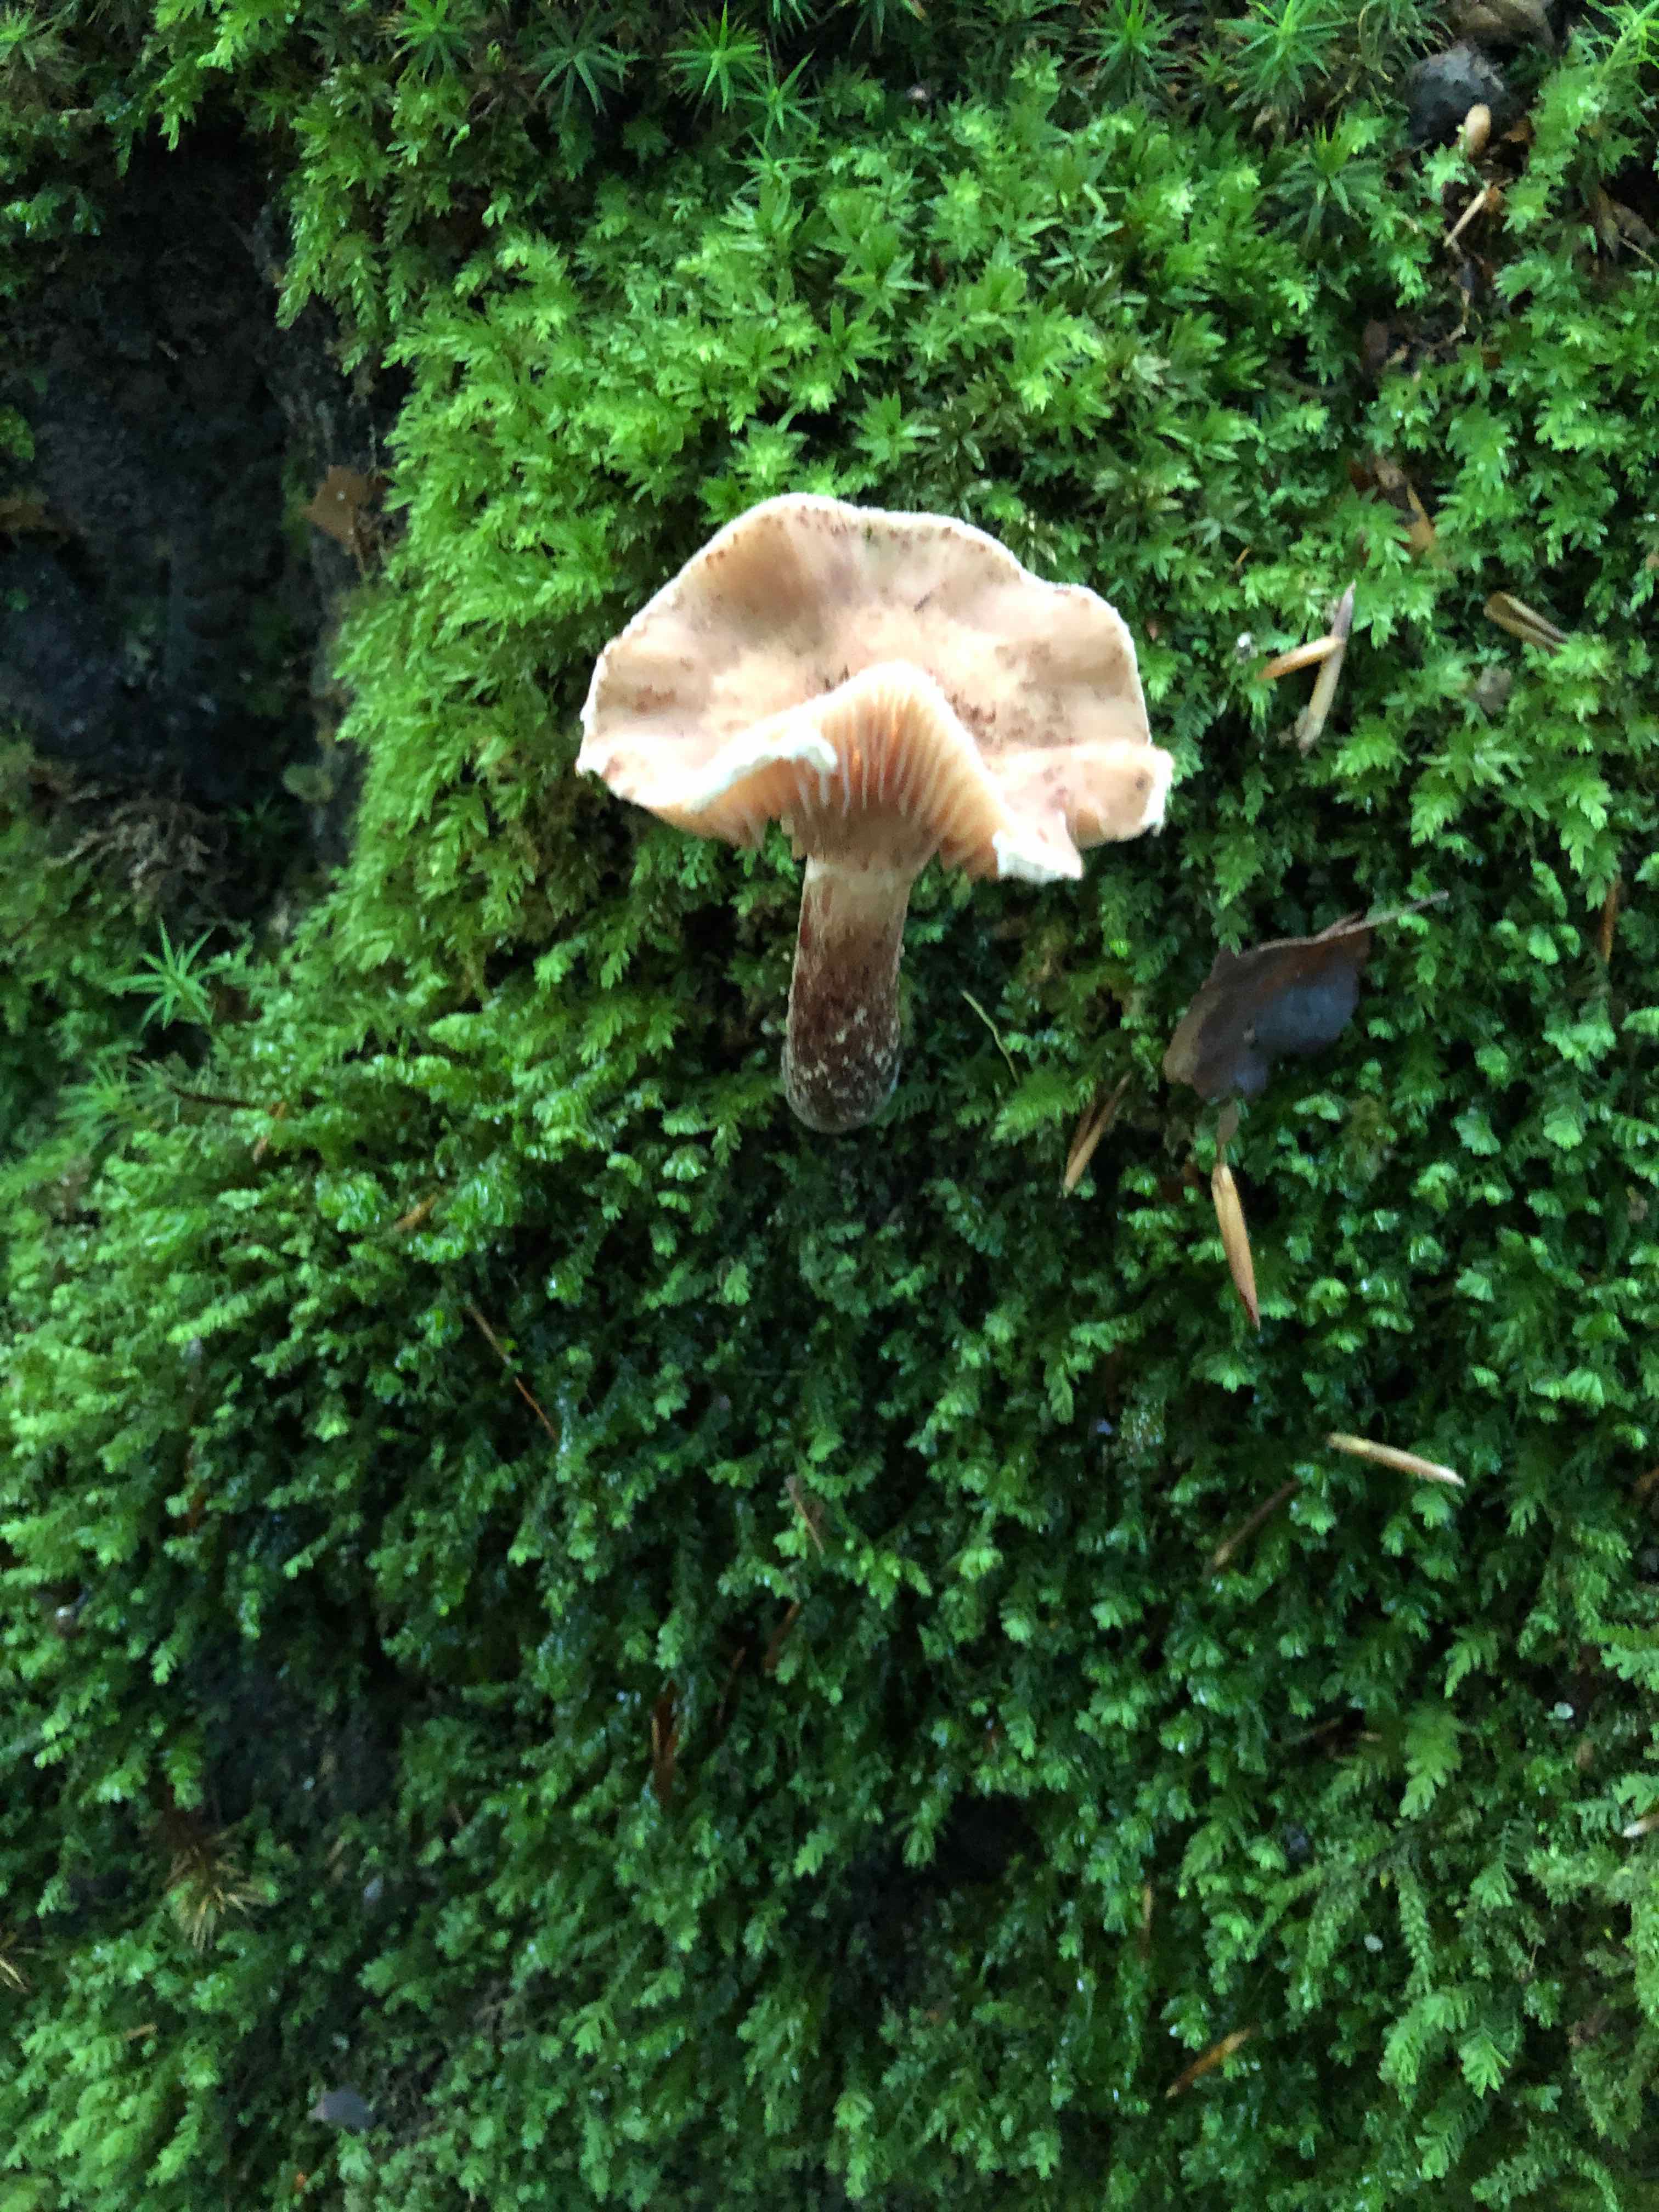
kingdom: Fungi
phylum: Basidiomycota
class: Agaricomycetes
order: Agaricales
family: Physalacriaceae
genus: Armillaria
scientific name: Armillaria
